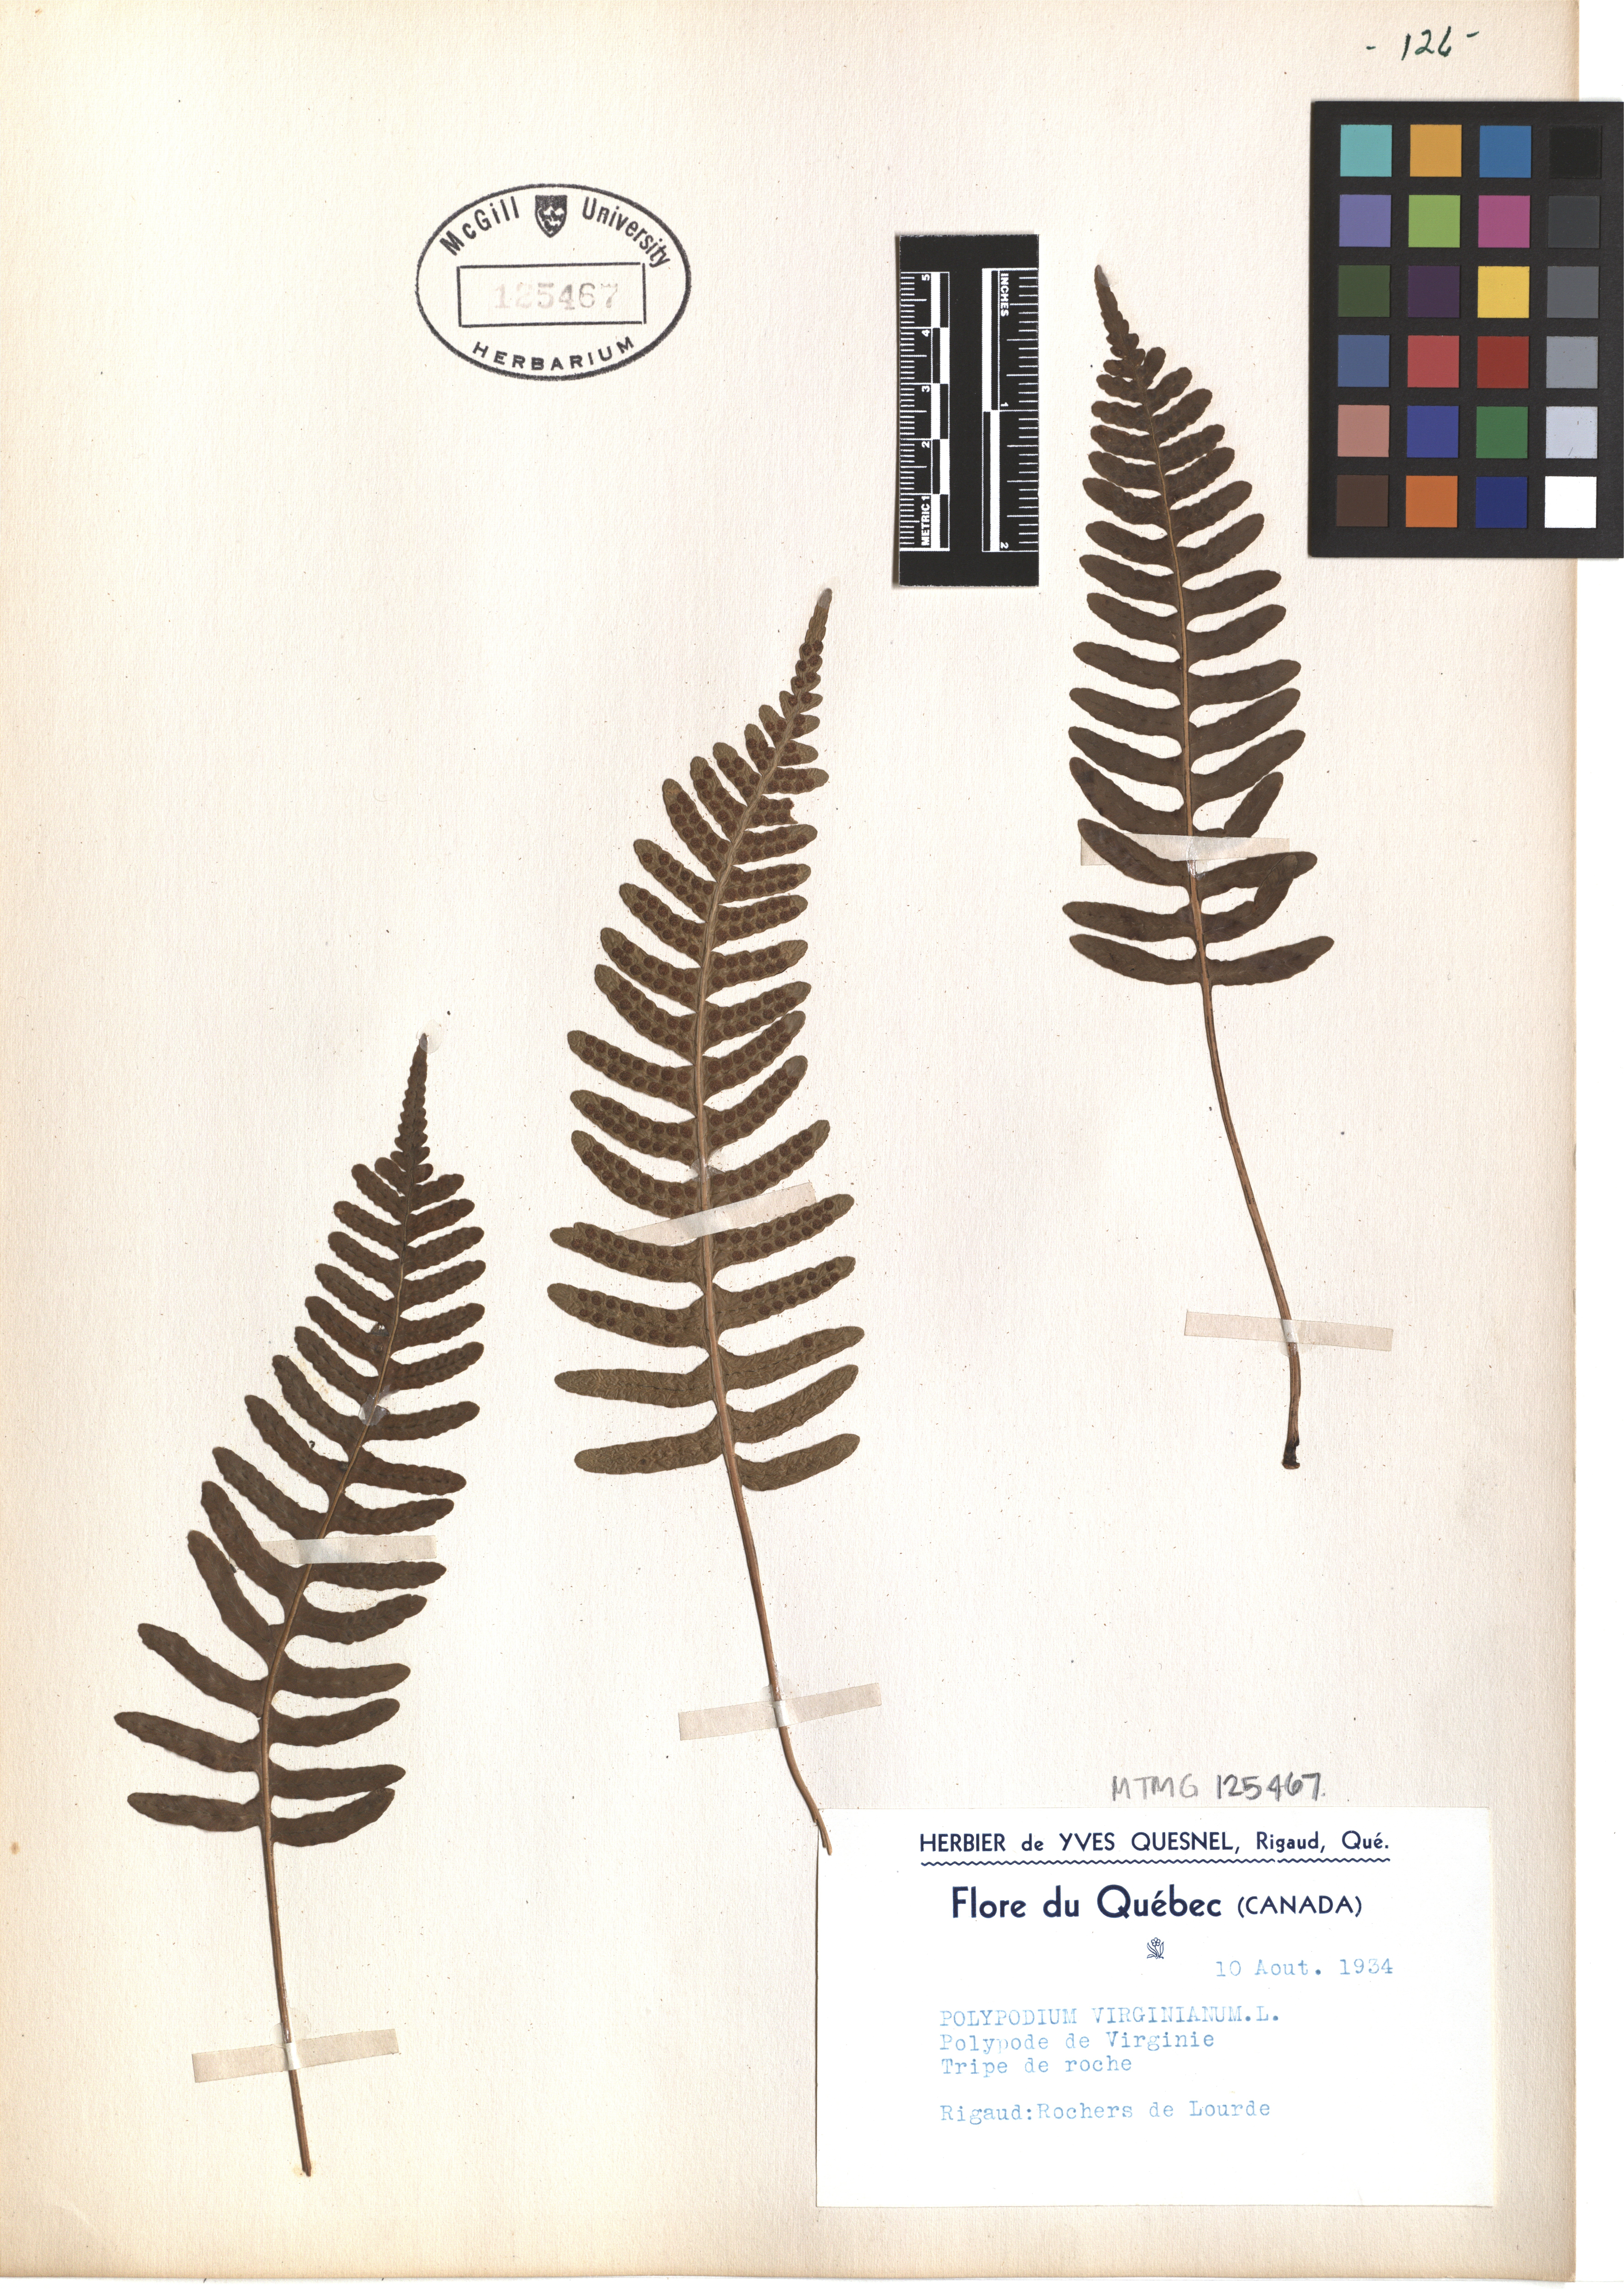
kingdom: Plantae
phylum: Tracheophyta
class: Polypodiopsida
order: Polypodiales
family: Polypodiaceae
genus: Polypodium
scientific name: Polypodium virginianum
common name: American wall fern
